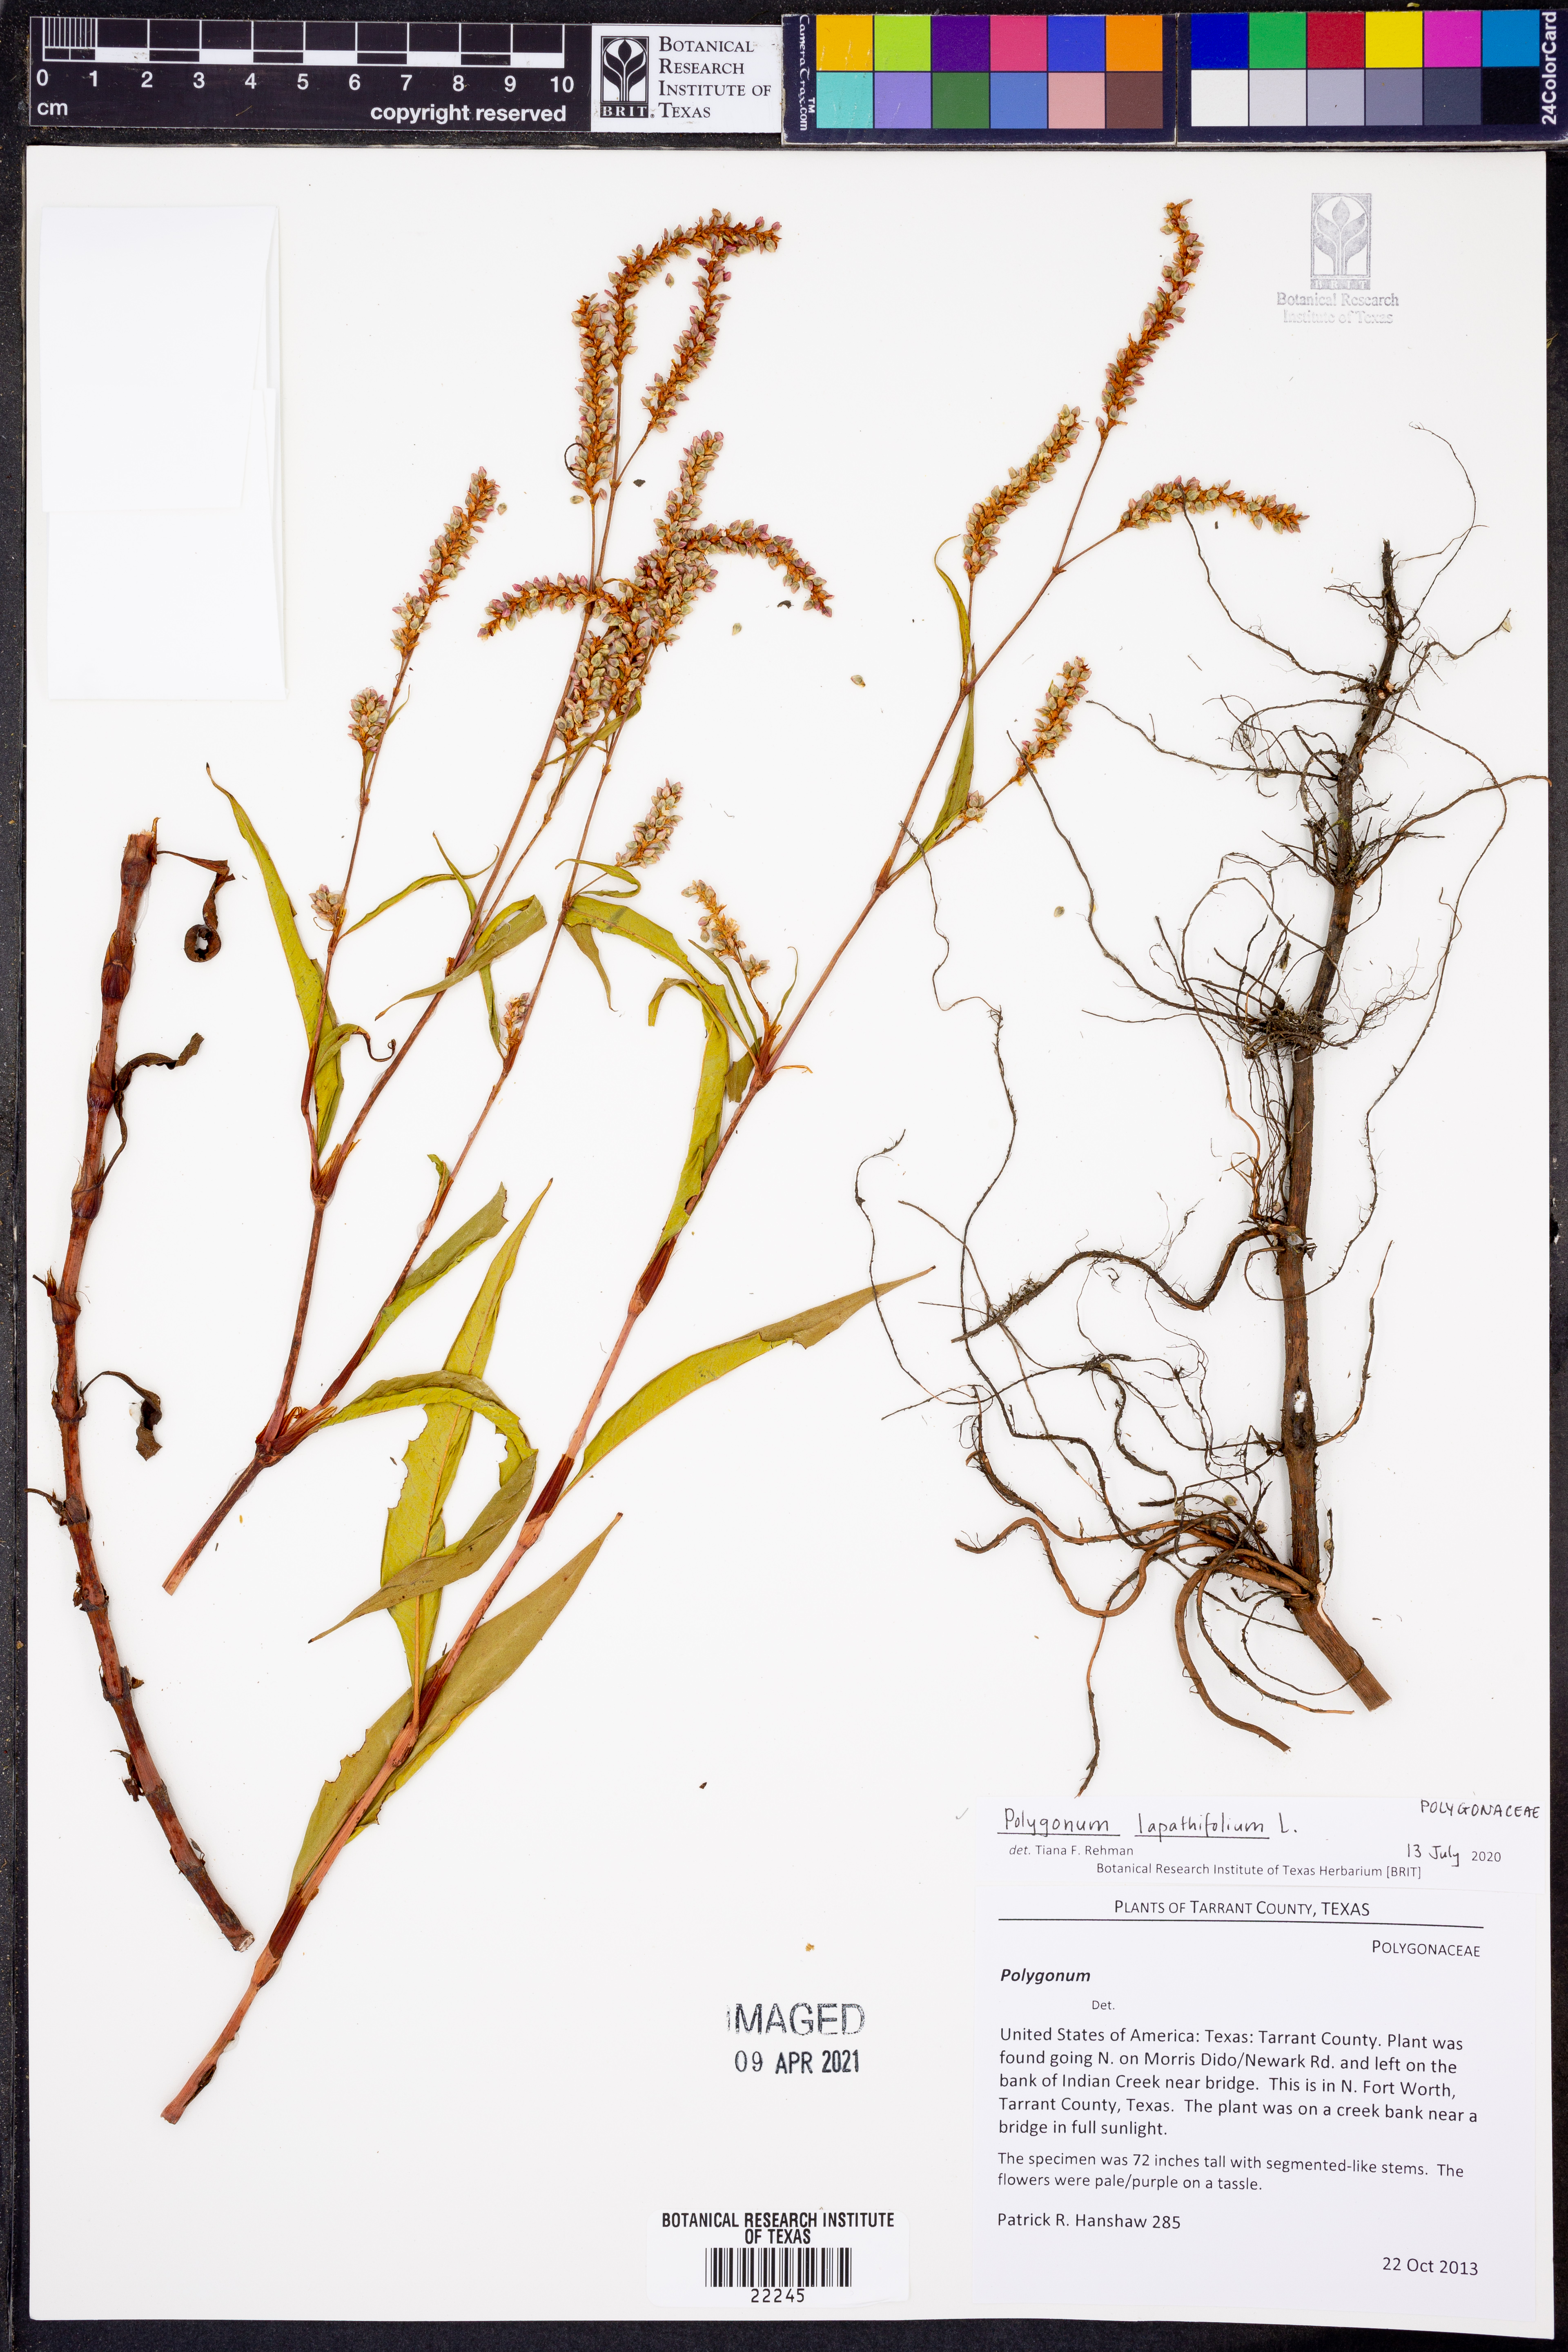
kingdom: Plantae
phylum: Tracheophyta
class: Magnoliopsida
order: Caryophyllales
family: Polygonaceae
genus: Persicaria
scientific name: Persicaria lapathifolia
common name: Curlytop knotweed
